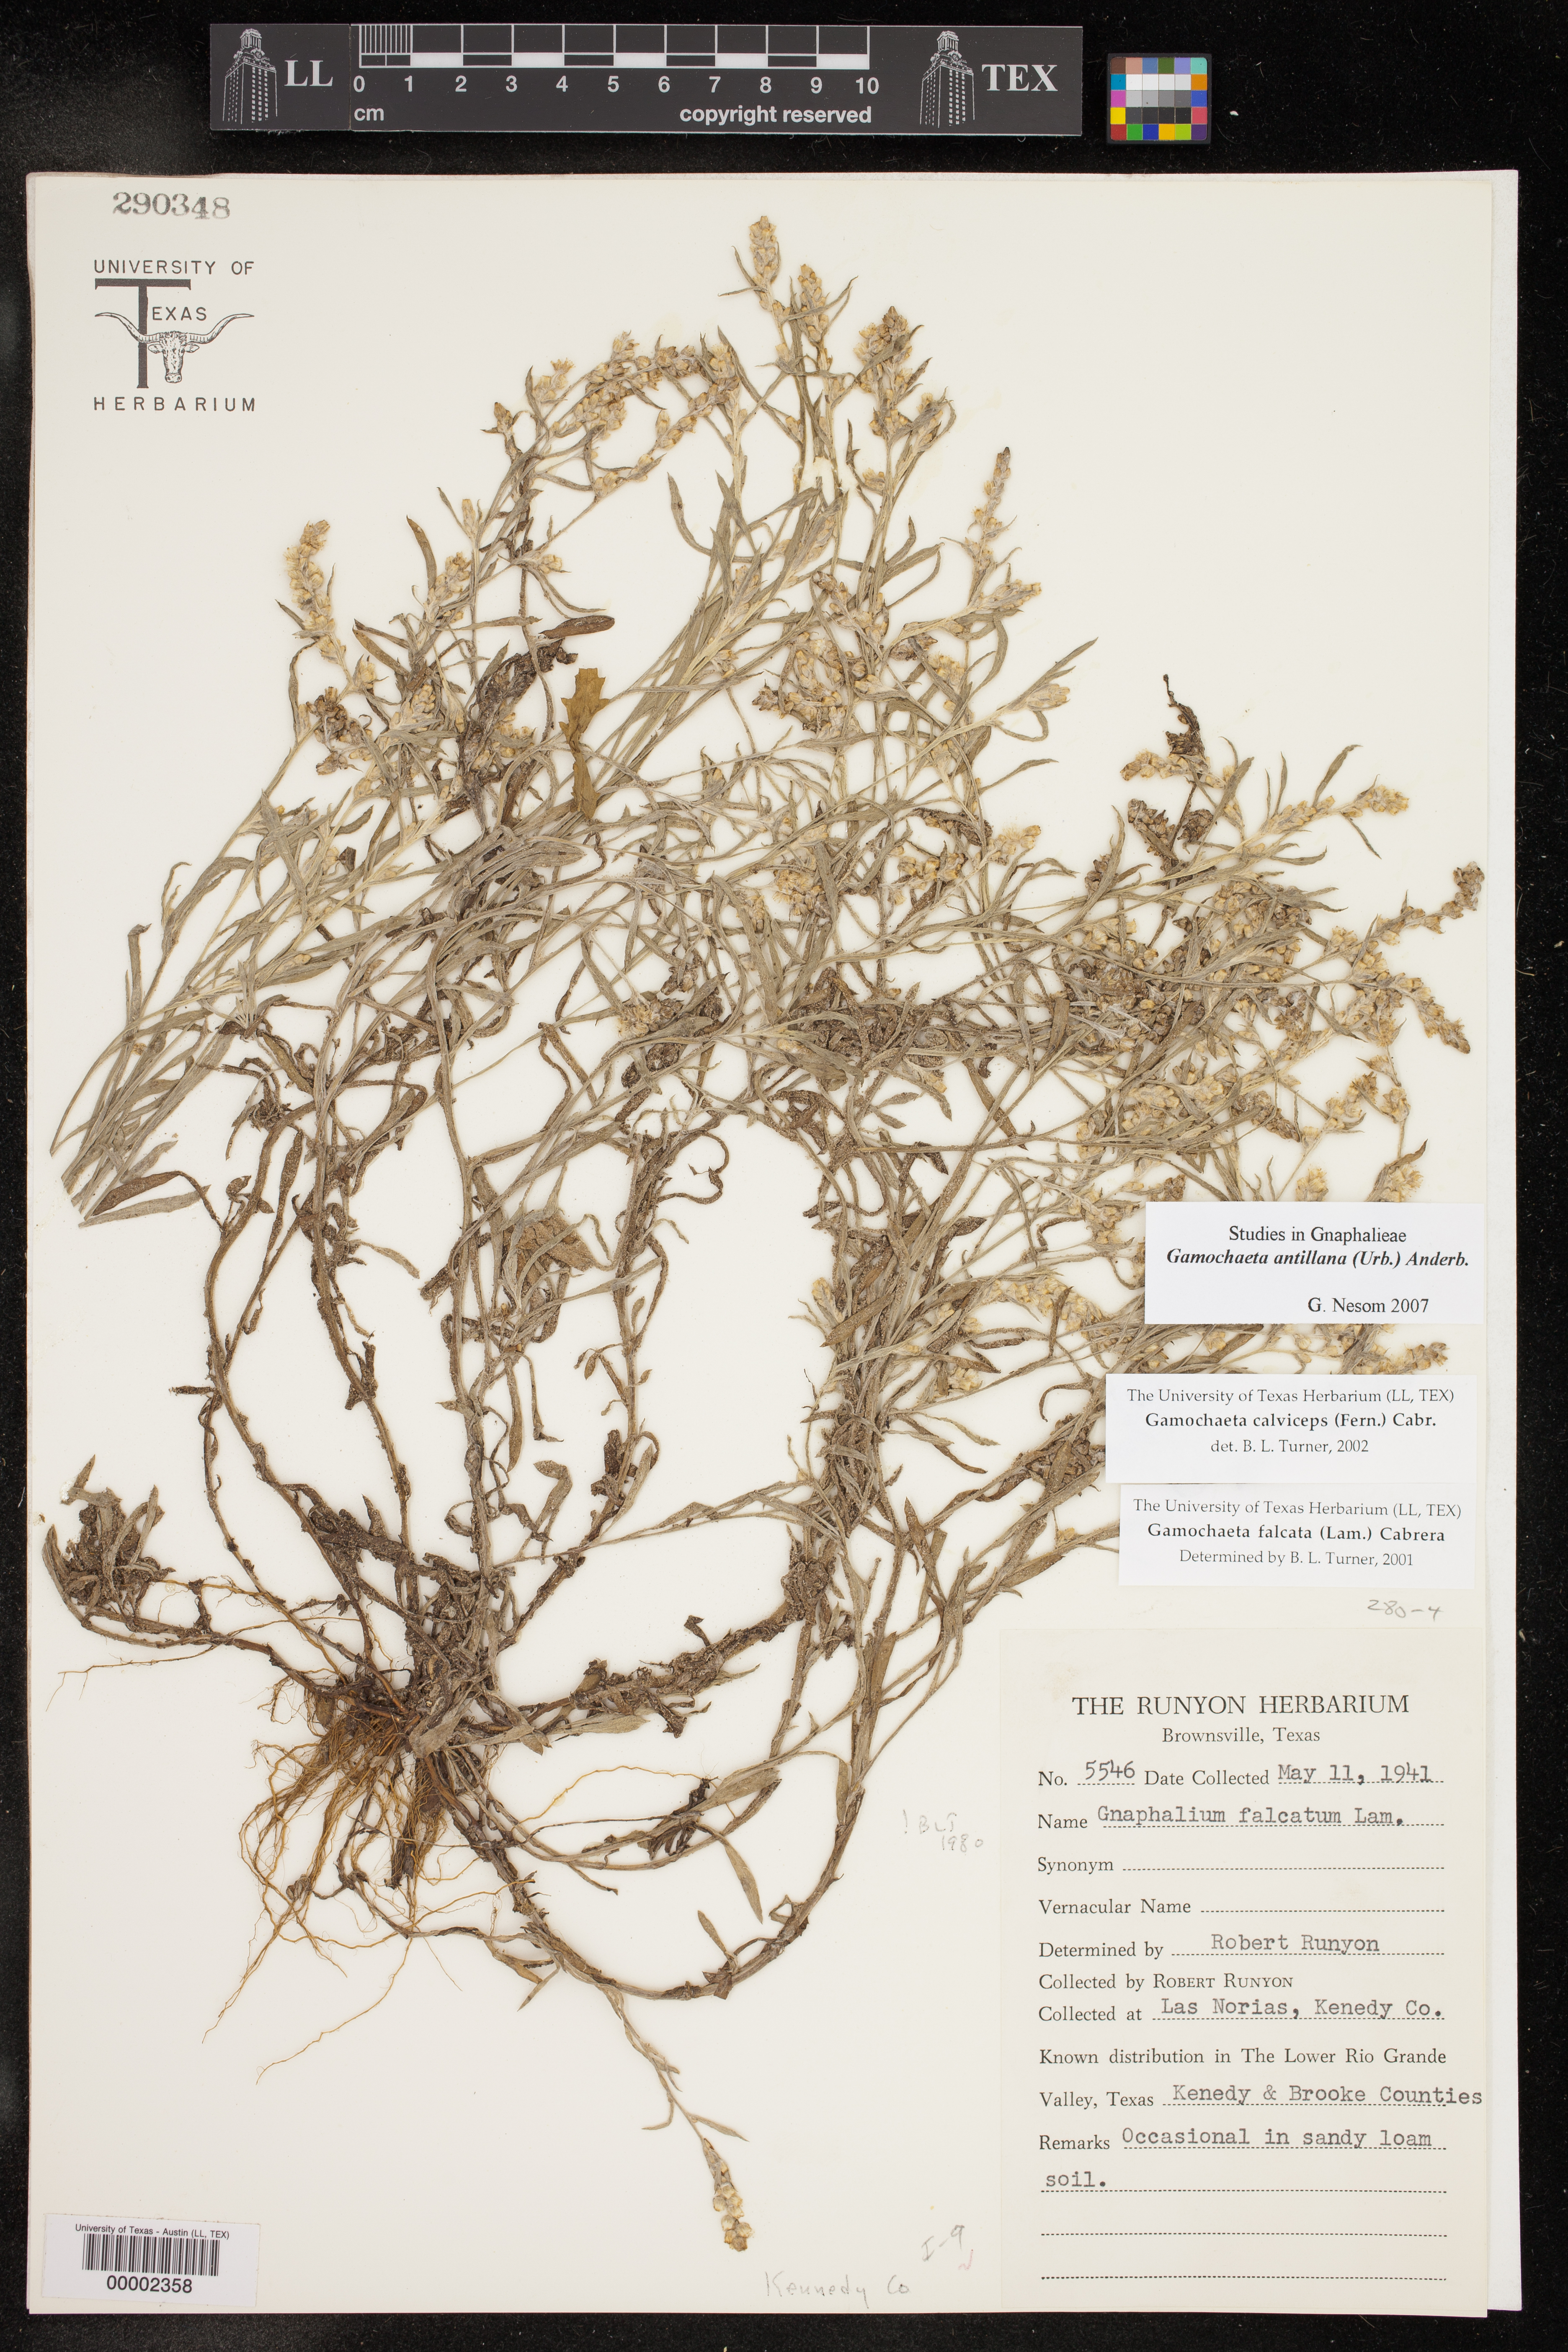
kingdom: Plantae
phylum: Tracheophyta
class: Magnoliopsida
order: Asterales
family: Asteraceae
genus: Gamochaeta
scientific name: Gamochaeta antillana
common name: Delicate everlasting
